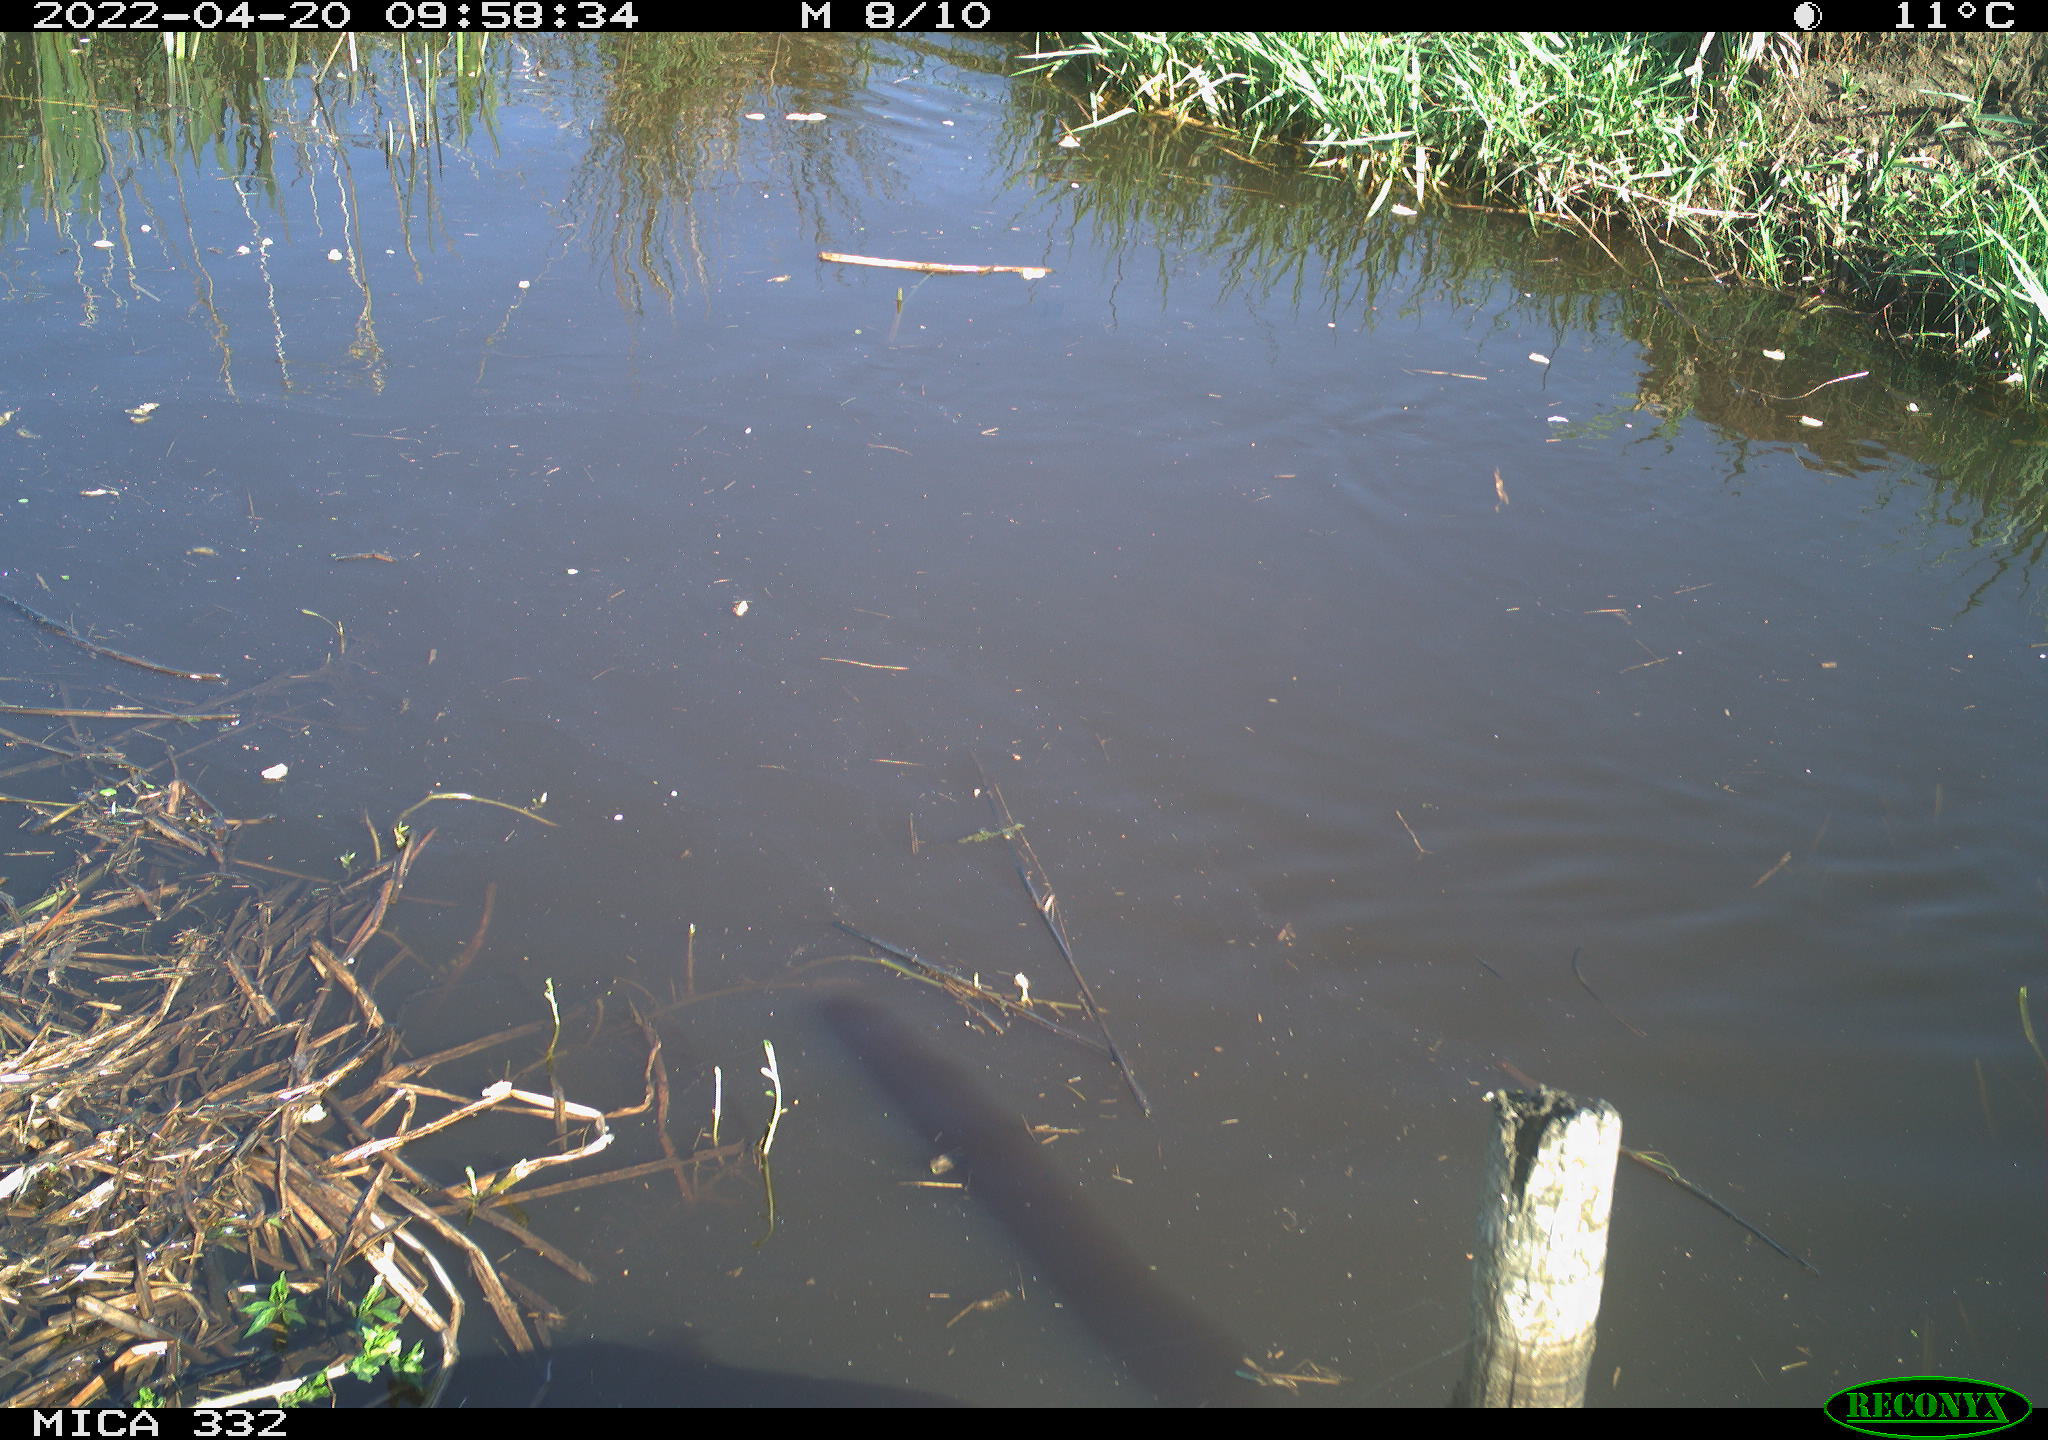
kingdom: Animalia
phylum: Chordata
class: Aves
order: Anseriformes
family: Anatidae
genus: Cygnus
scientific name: Cygnus olor
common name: Mute swan
